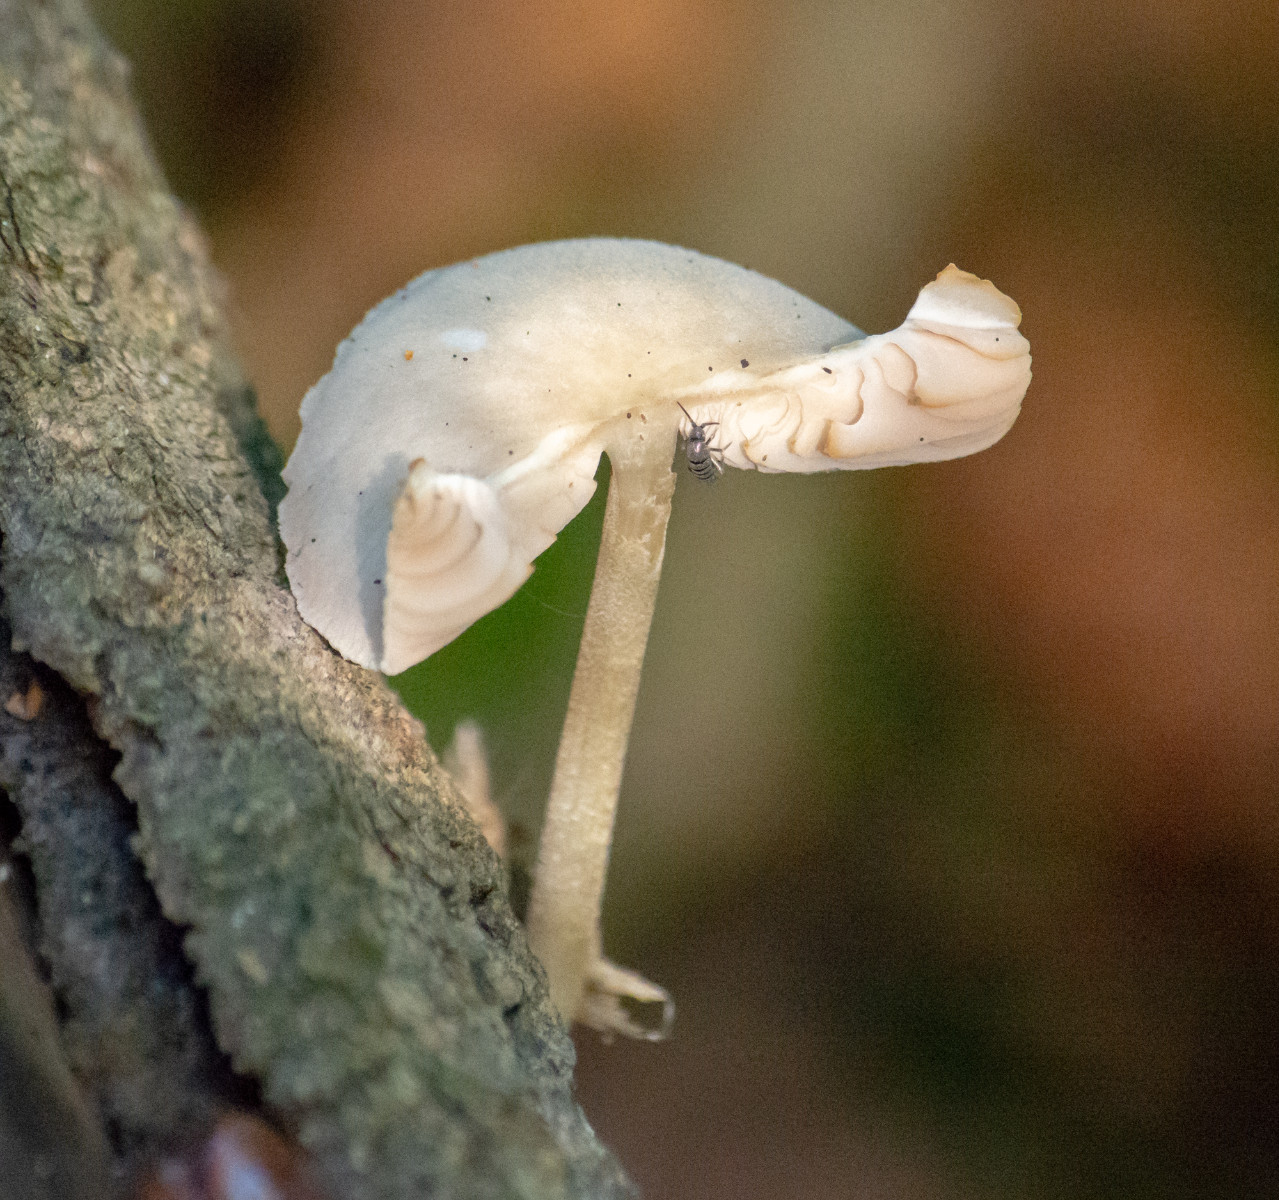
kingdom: Fungi
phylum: Basidiomycota
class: Agaricomycetes
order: Agaricales
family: Pluteaceae
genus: Pluteus
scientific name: Pluteus
